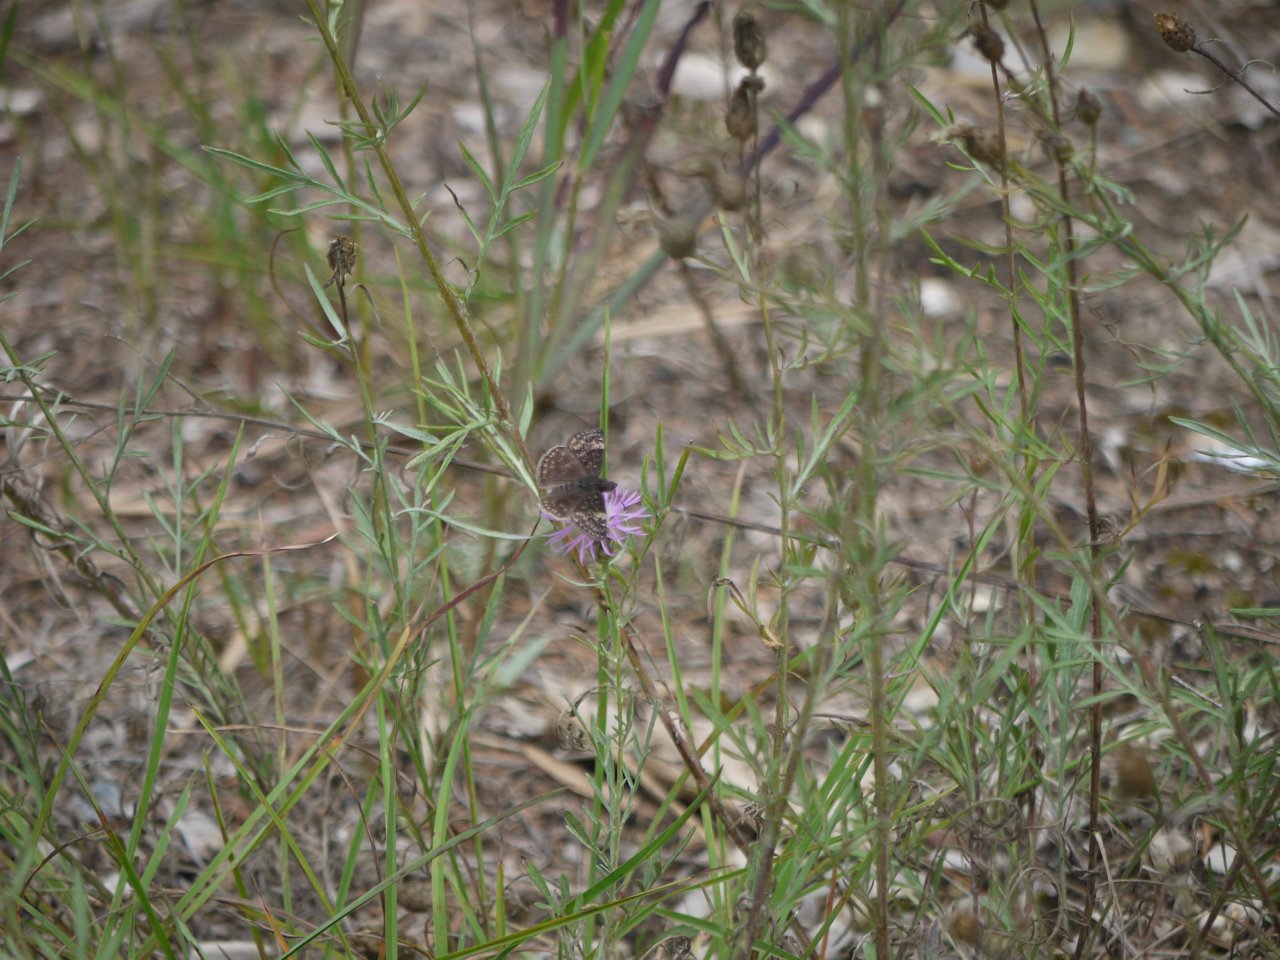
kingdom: Animalia
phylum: Arthropoda
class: Insecta
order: Lepidoptera
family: Hesperiidae
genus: Gesta
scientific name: Gesta
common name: Wild Indigo Duskywing
